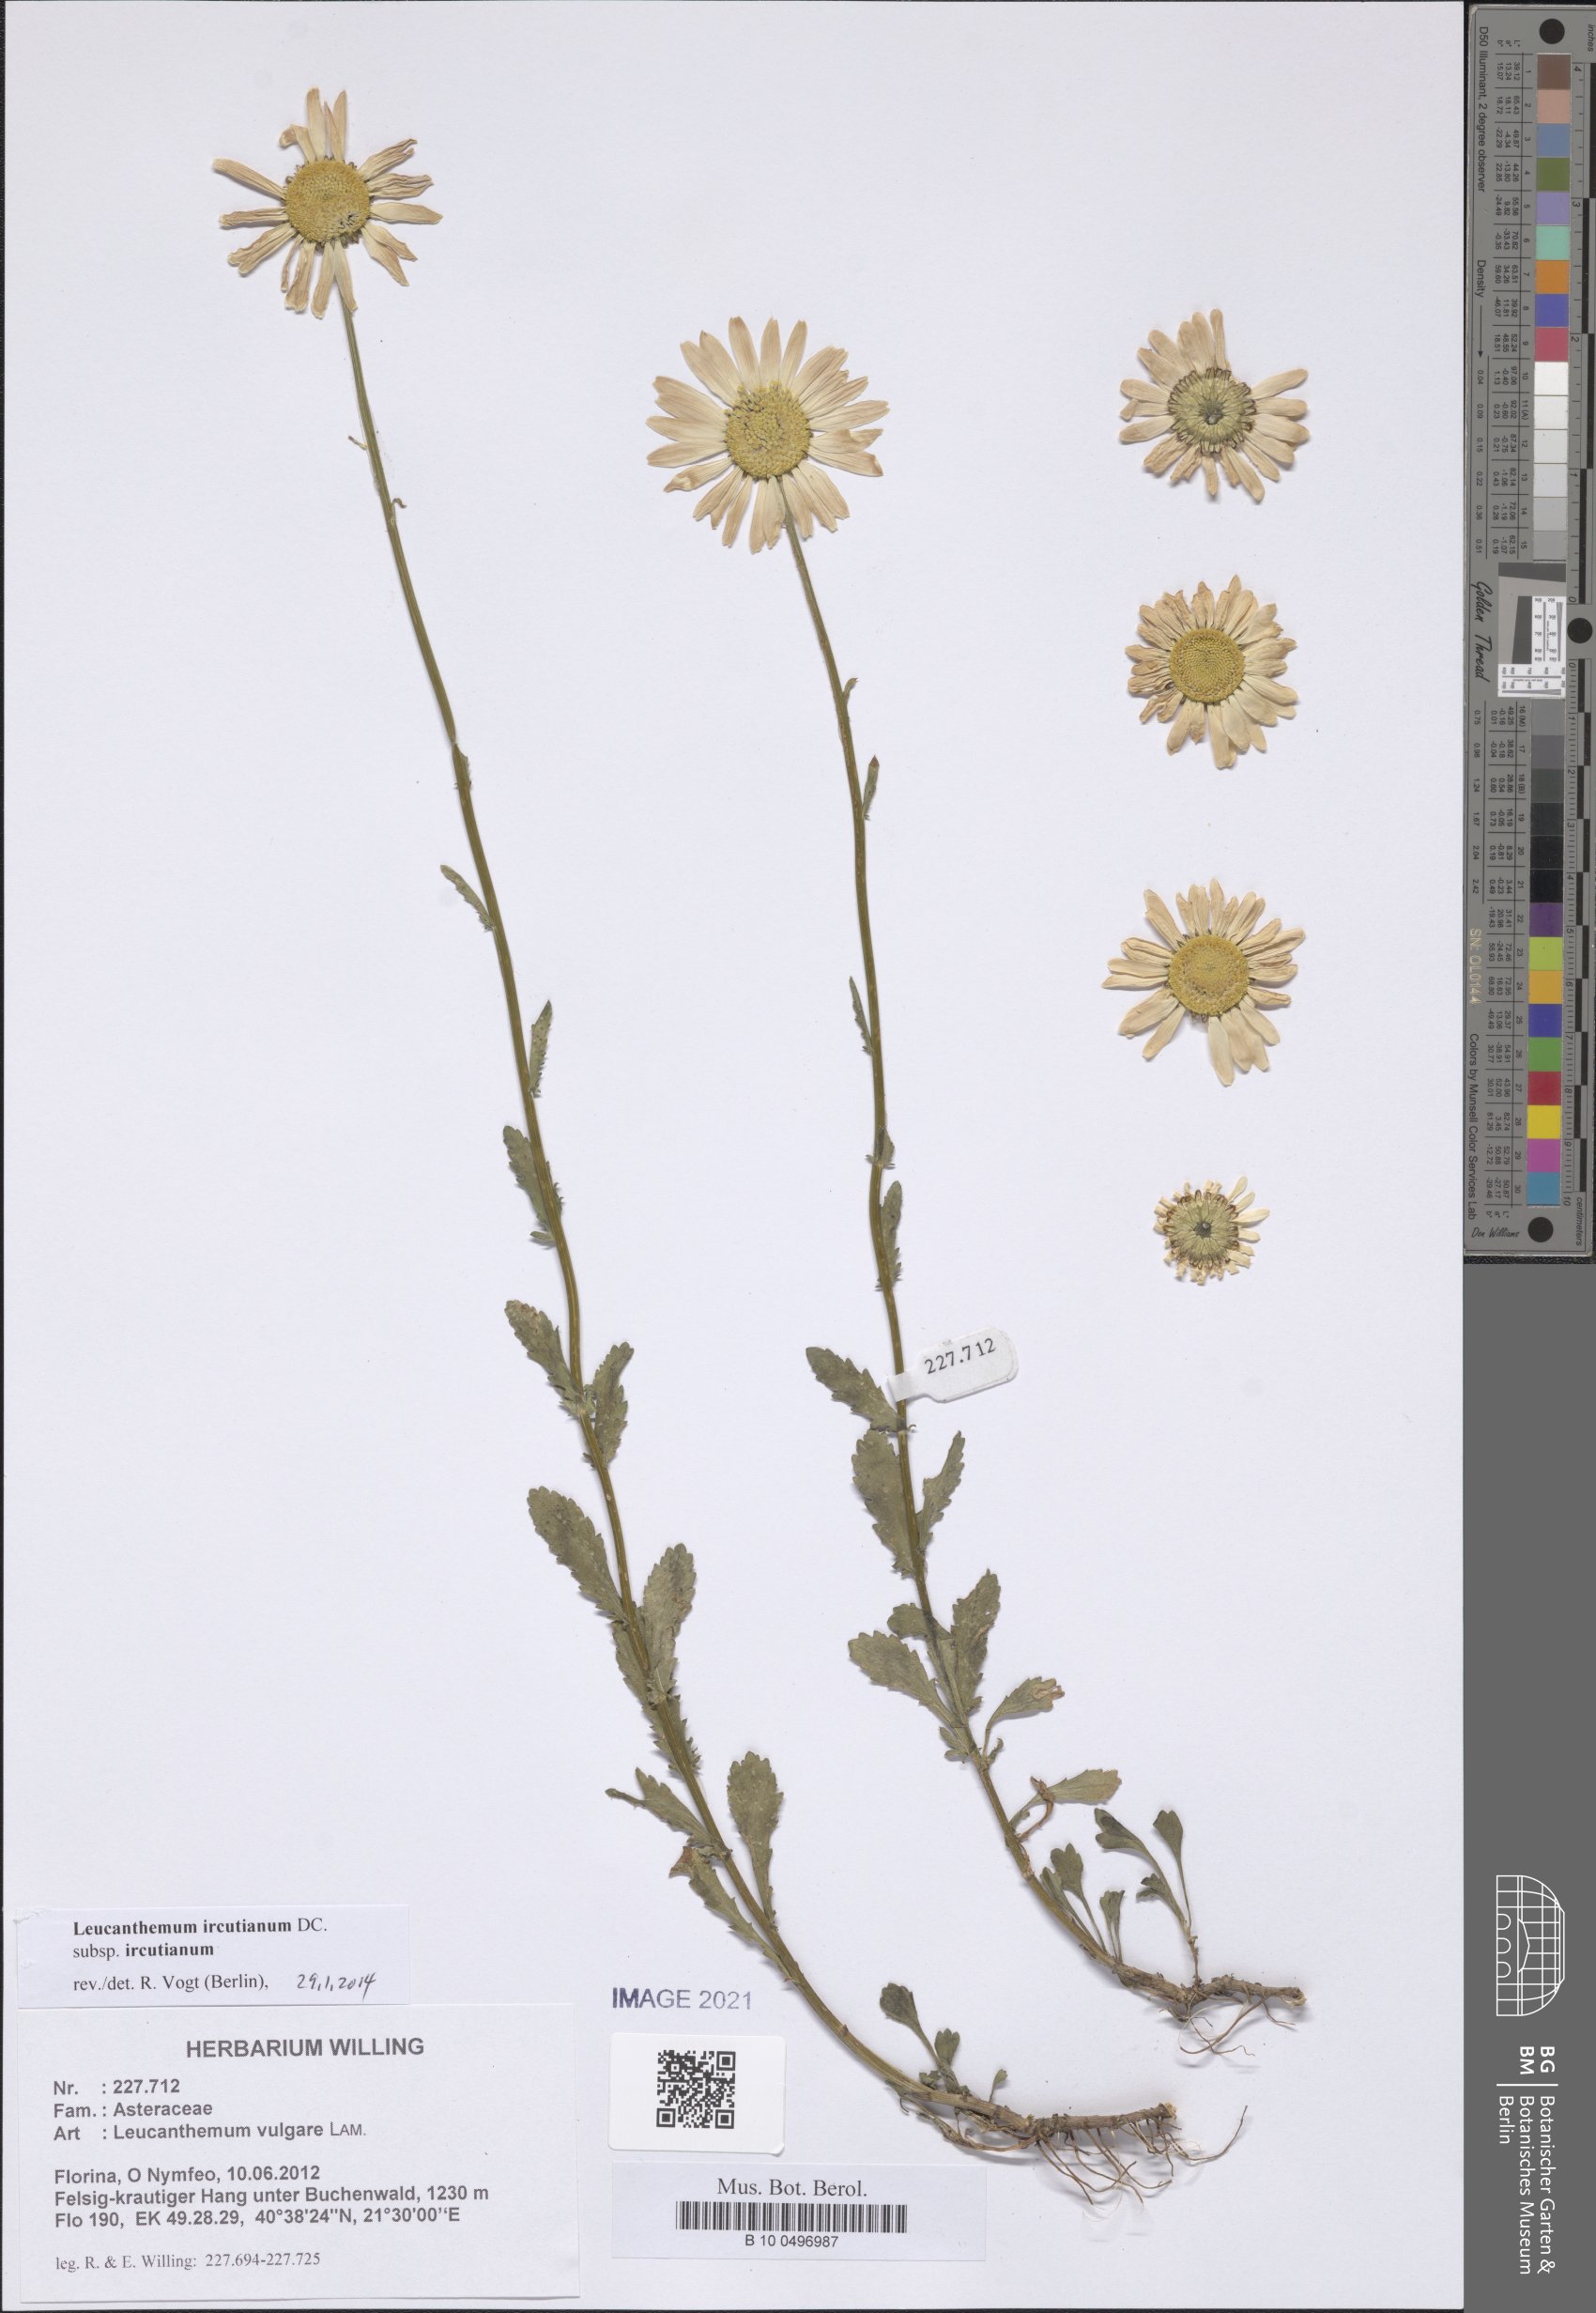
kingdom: Plantae
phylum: Tracheophyta
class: Magnoliopsida
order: Asterales
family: Asteraceae
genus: Leucanthemum
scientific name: Leucanthemum ircutianum
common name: Daisy
